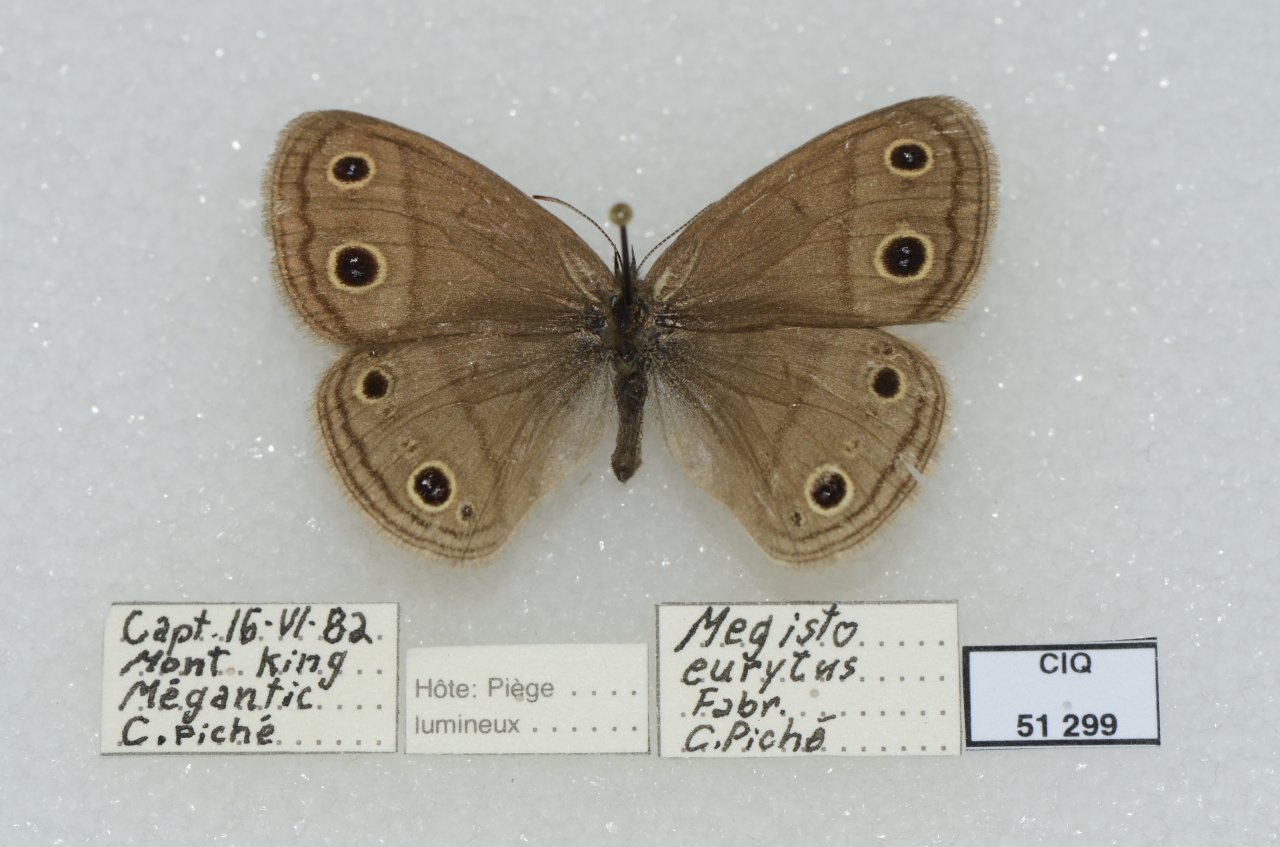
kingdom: Animalia
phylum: Arthropoda
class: Insecta
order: Lepidoptera
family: Nymphalidae
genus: Euptychia
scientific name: Euptychia cymela
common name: Little Wood Satyr
